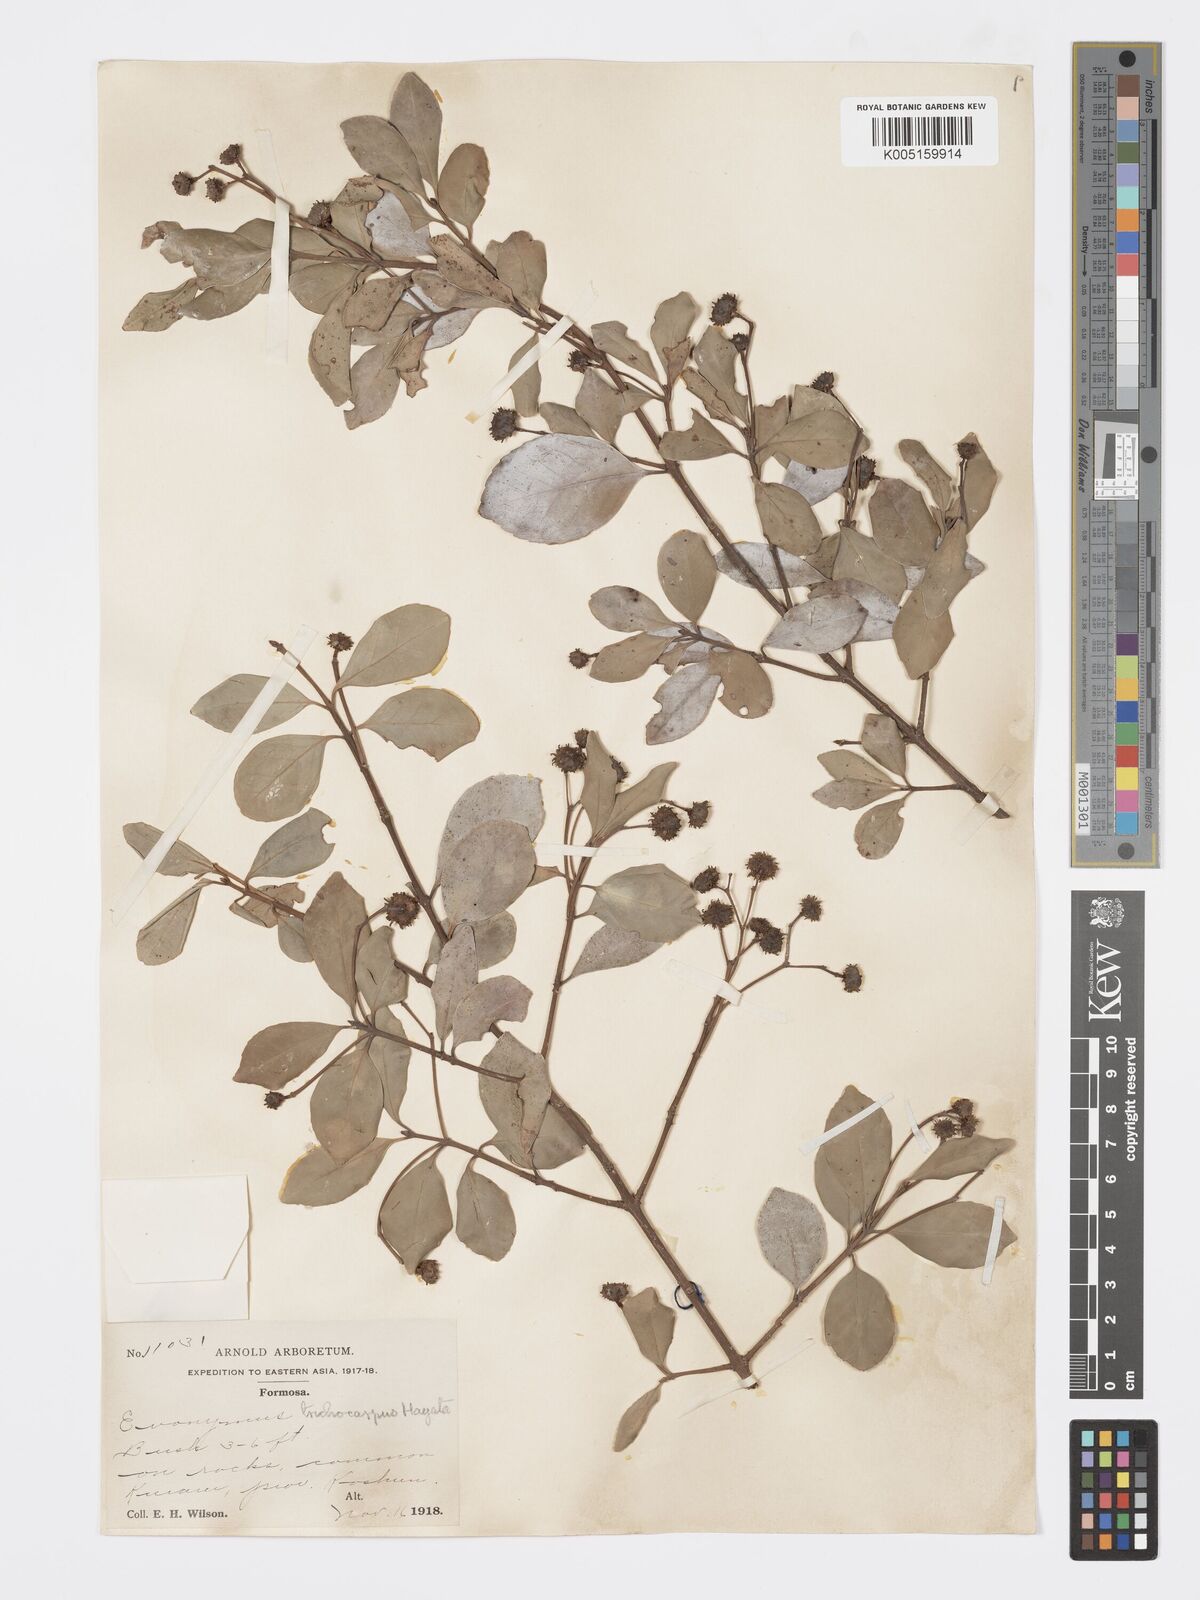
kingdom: Plantae
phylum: Tracheophyta
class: Magnoliopsida
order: Celastrales
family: Celastraceae
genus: Euonymus
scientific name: Euonymus echinatus
